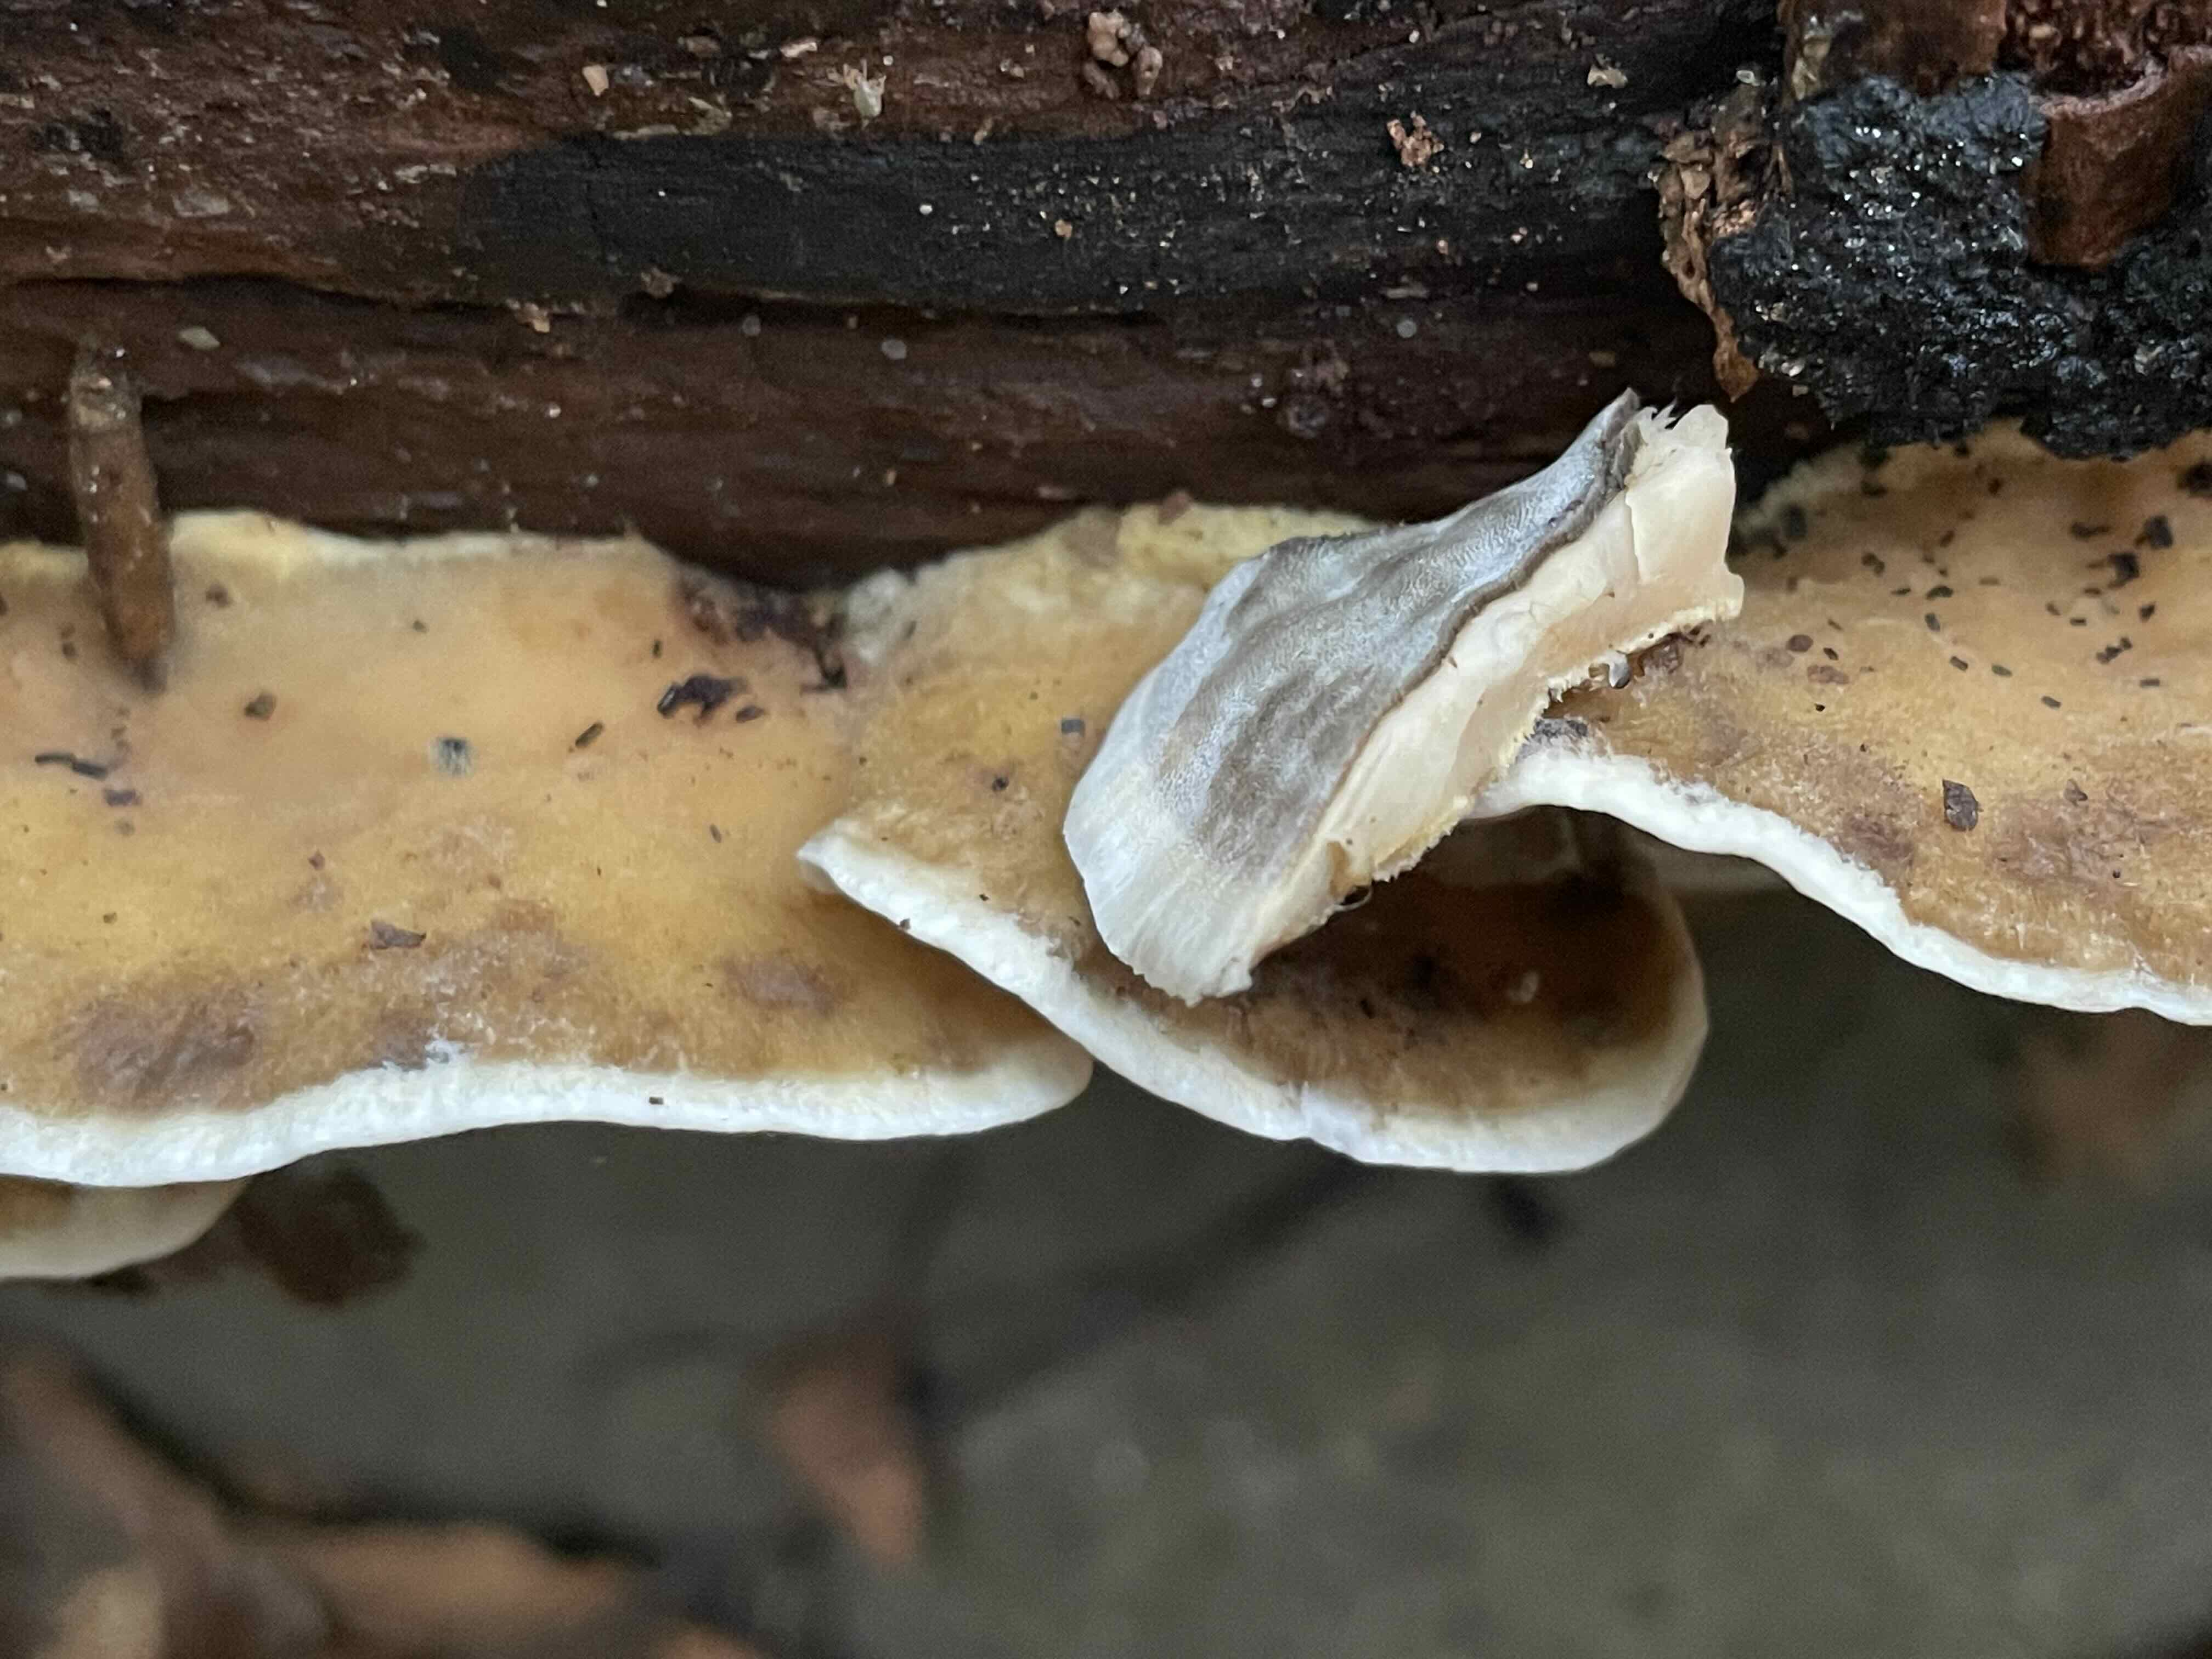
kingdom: Fungi
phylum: Basidiomycota
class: Agaricomycetes
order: Polyporales
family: Phanerochaetaceae
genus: Bjerkandera
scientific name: Bjerkandera adusta
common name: sveden sodporesvamp
